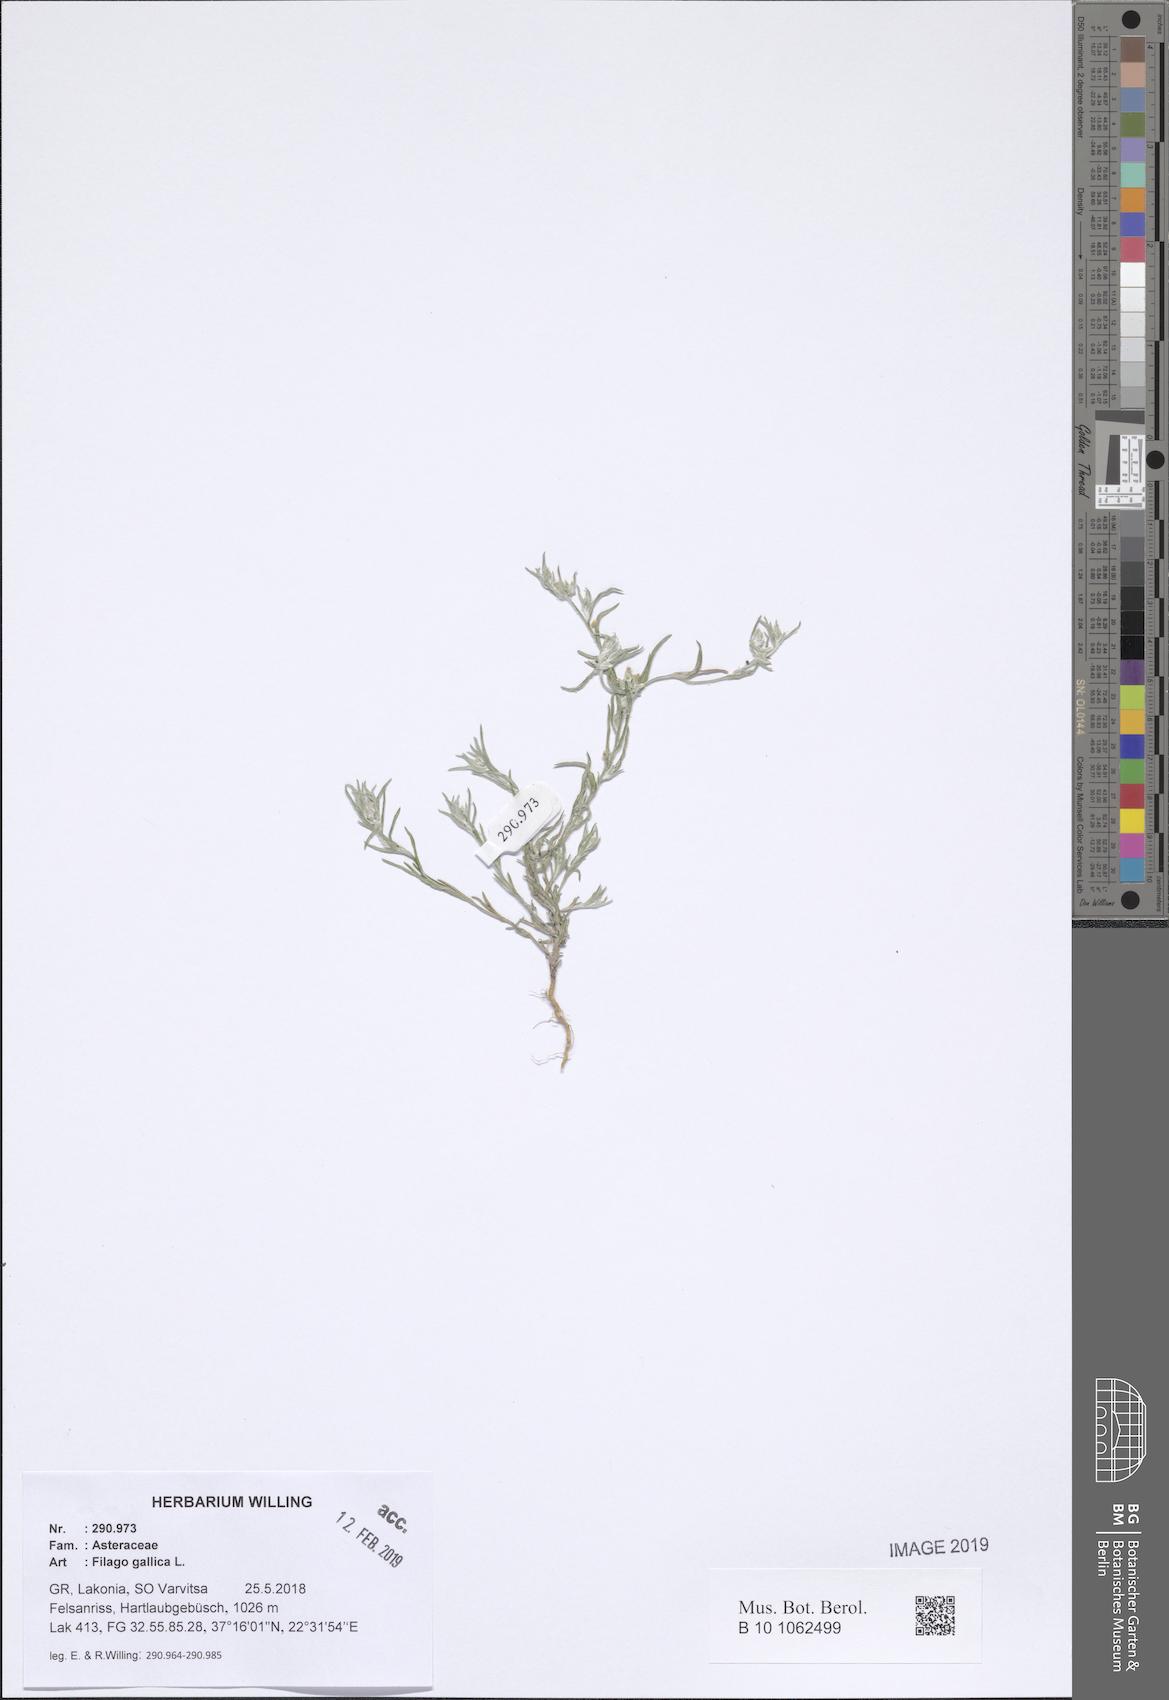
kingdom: Plantae
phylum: Tracheophyta
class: Magnoliopsida
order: Asterales
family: Asteraceae
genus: Logfia
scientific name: Logfia gallica
